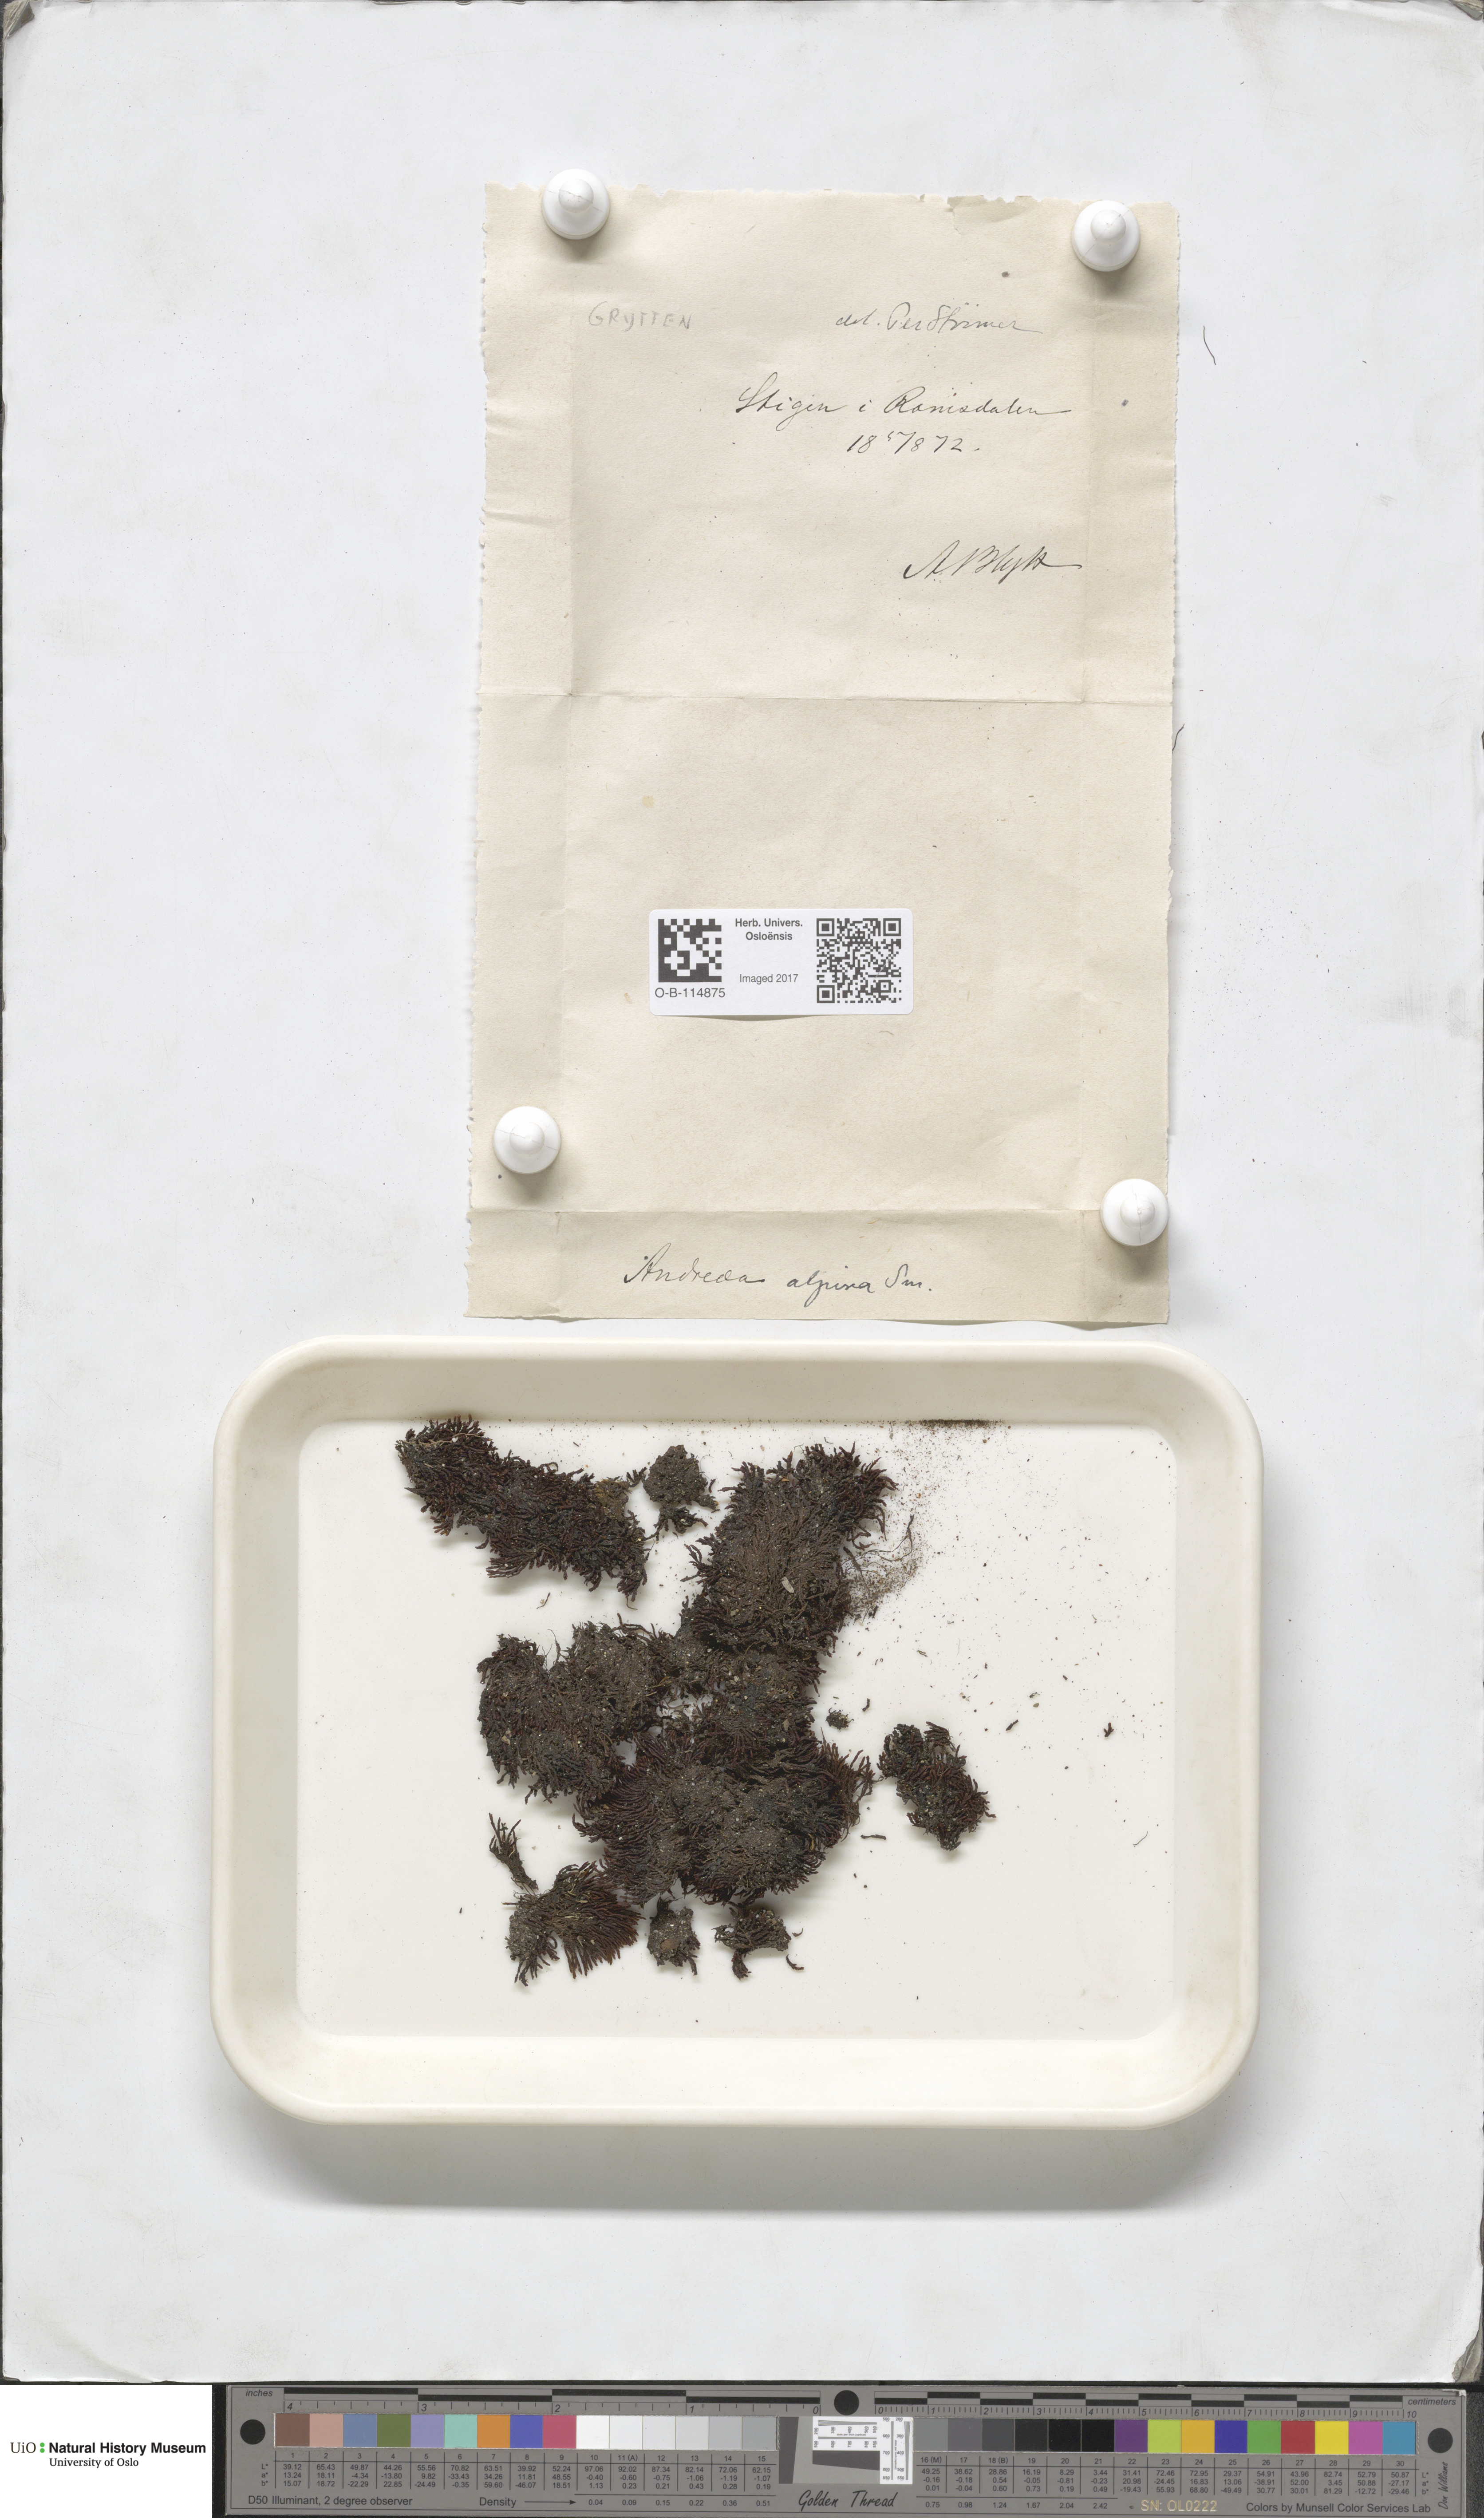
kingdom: Plantae
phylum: Bryophyta
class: Andreaeopsida
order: Andreaeales
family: Andreaeaceae
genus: Andreaea
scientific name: Andreaea hookeri
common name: Alpine rock-moss
